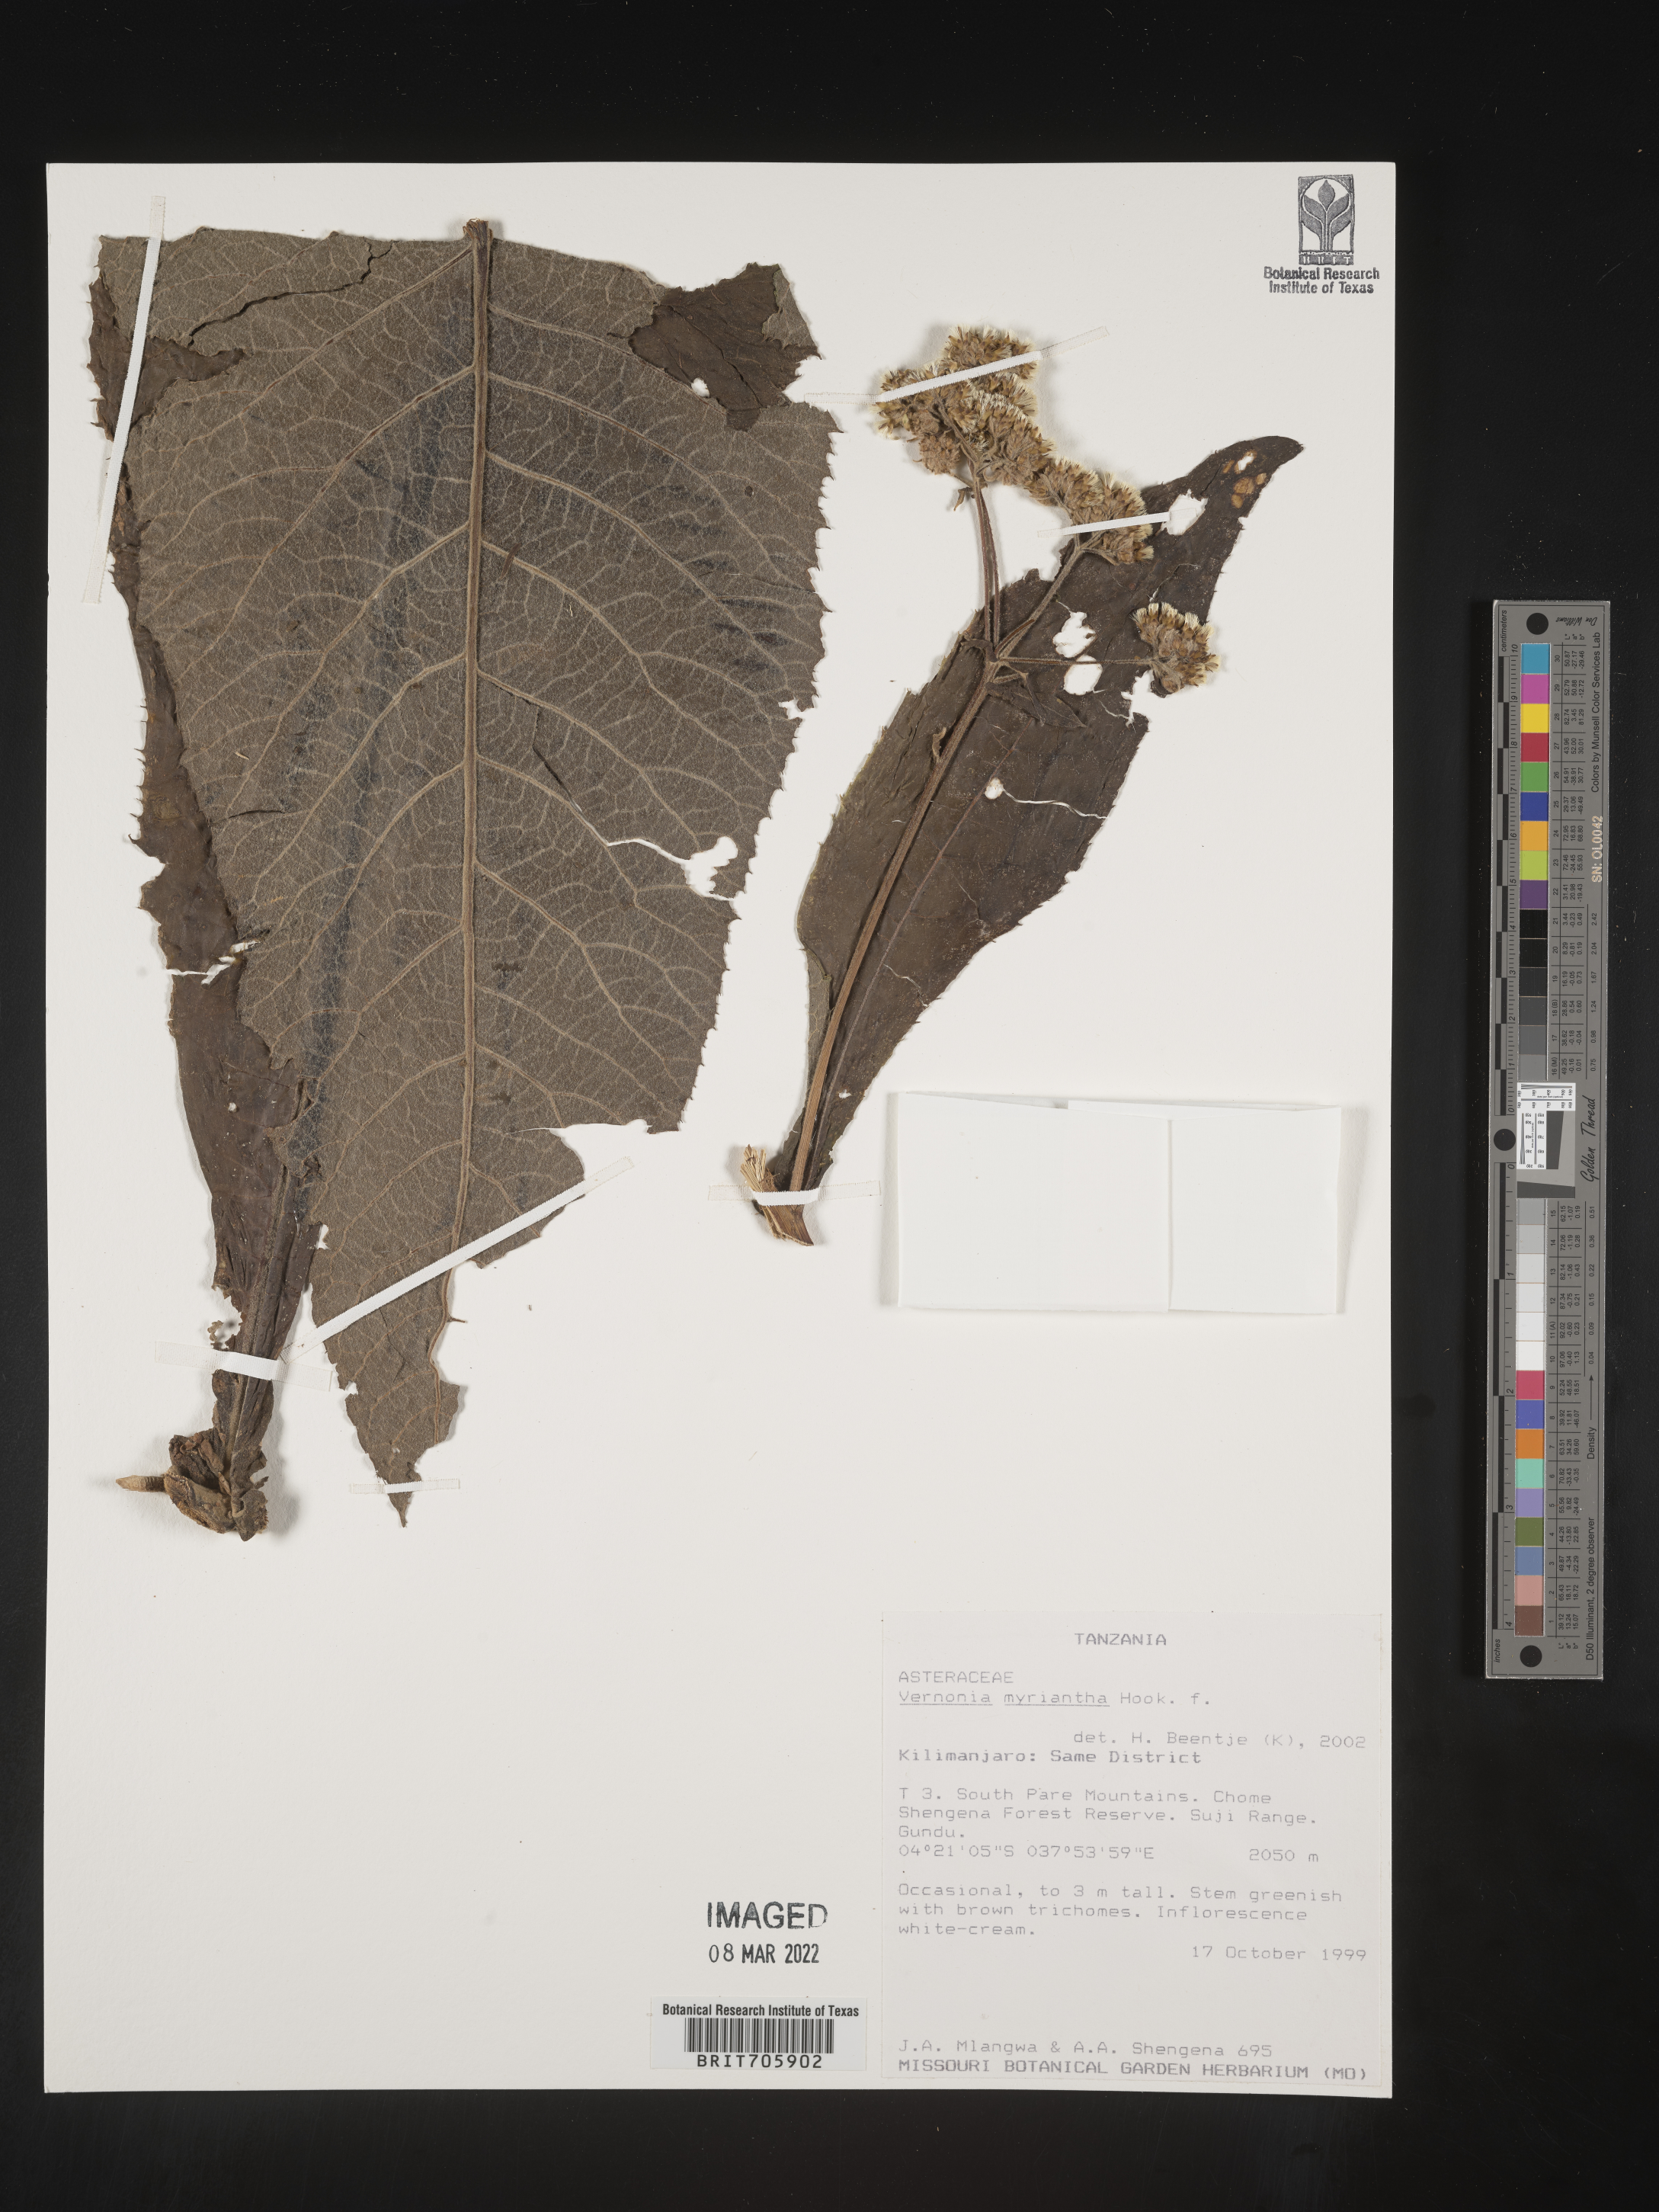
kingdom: Plantae
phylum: Tracheophyta
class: Magnoliopsida
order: Asterales
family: Asteraceae
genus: Vernonia
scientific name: Vernonia
